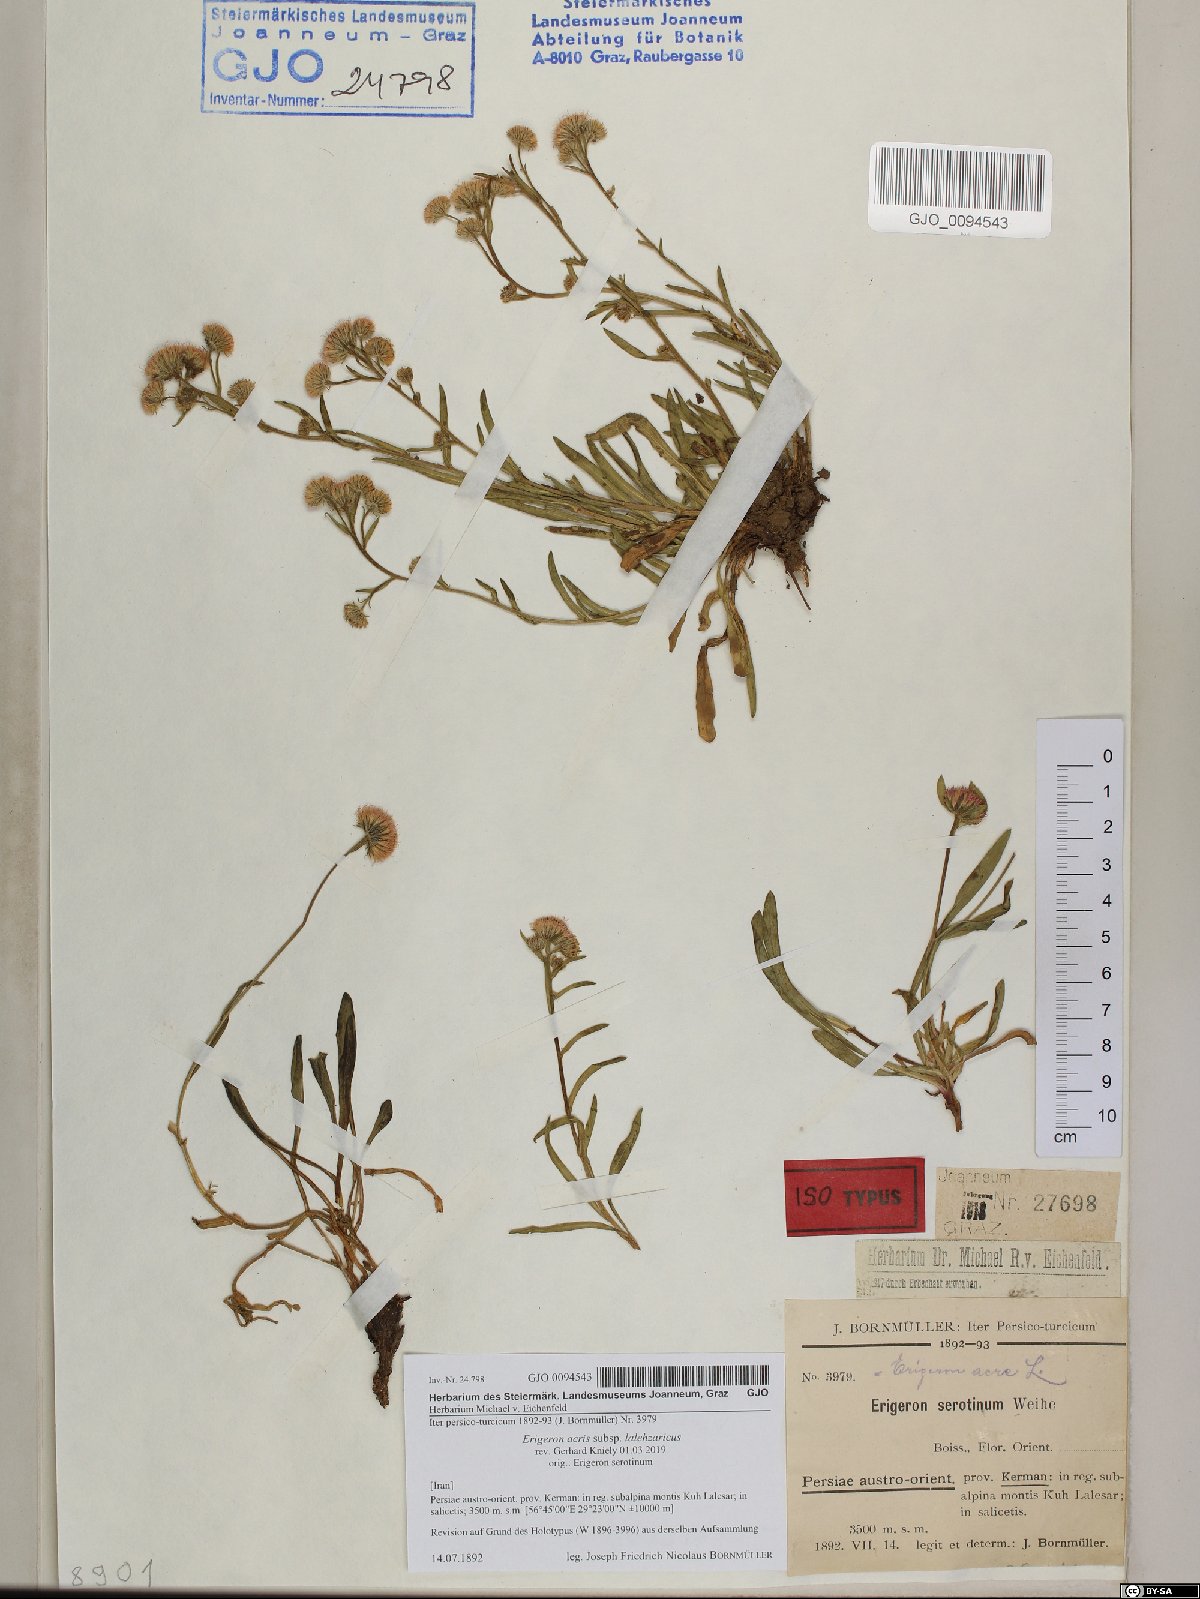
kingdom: Plantae
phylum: Tracheophyta
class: Magnoliopsida
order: Asterales
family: Asteraceae
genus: Erigeron
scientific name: Erigeron lalehzaricus
